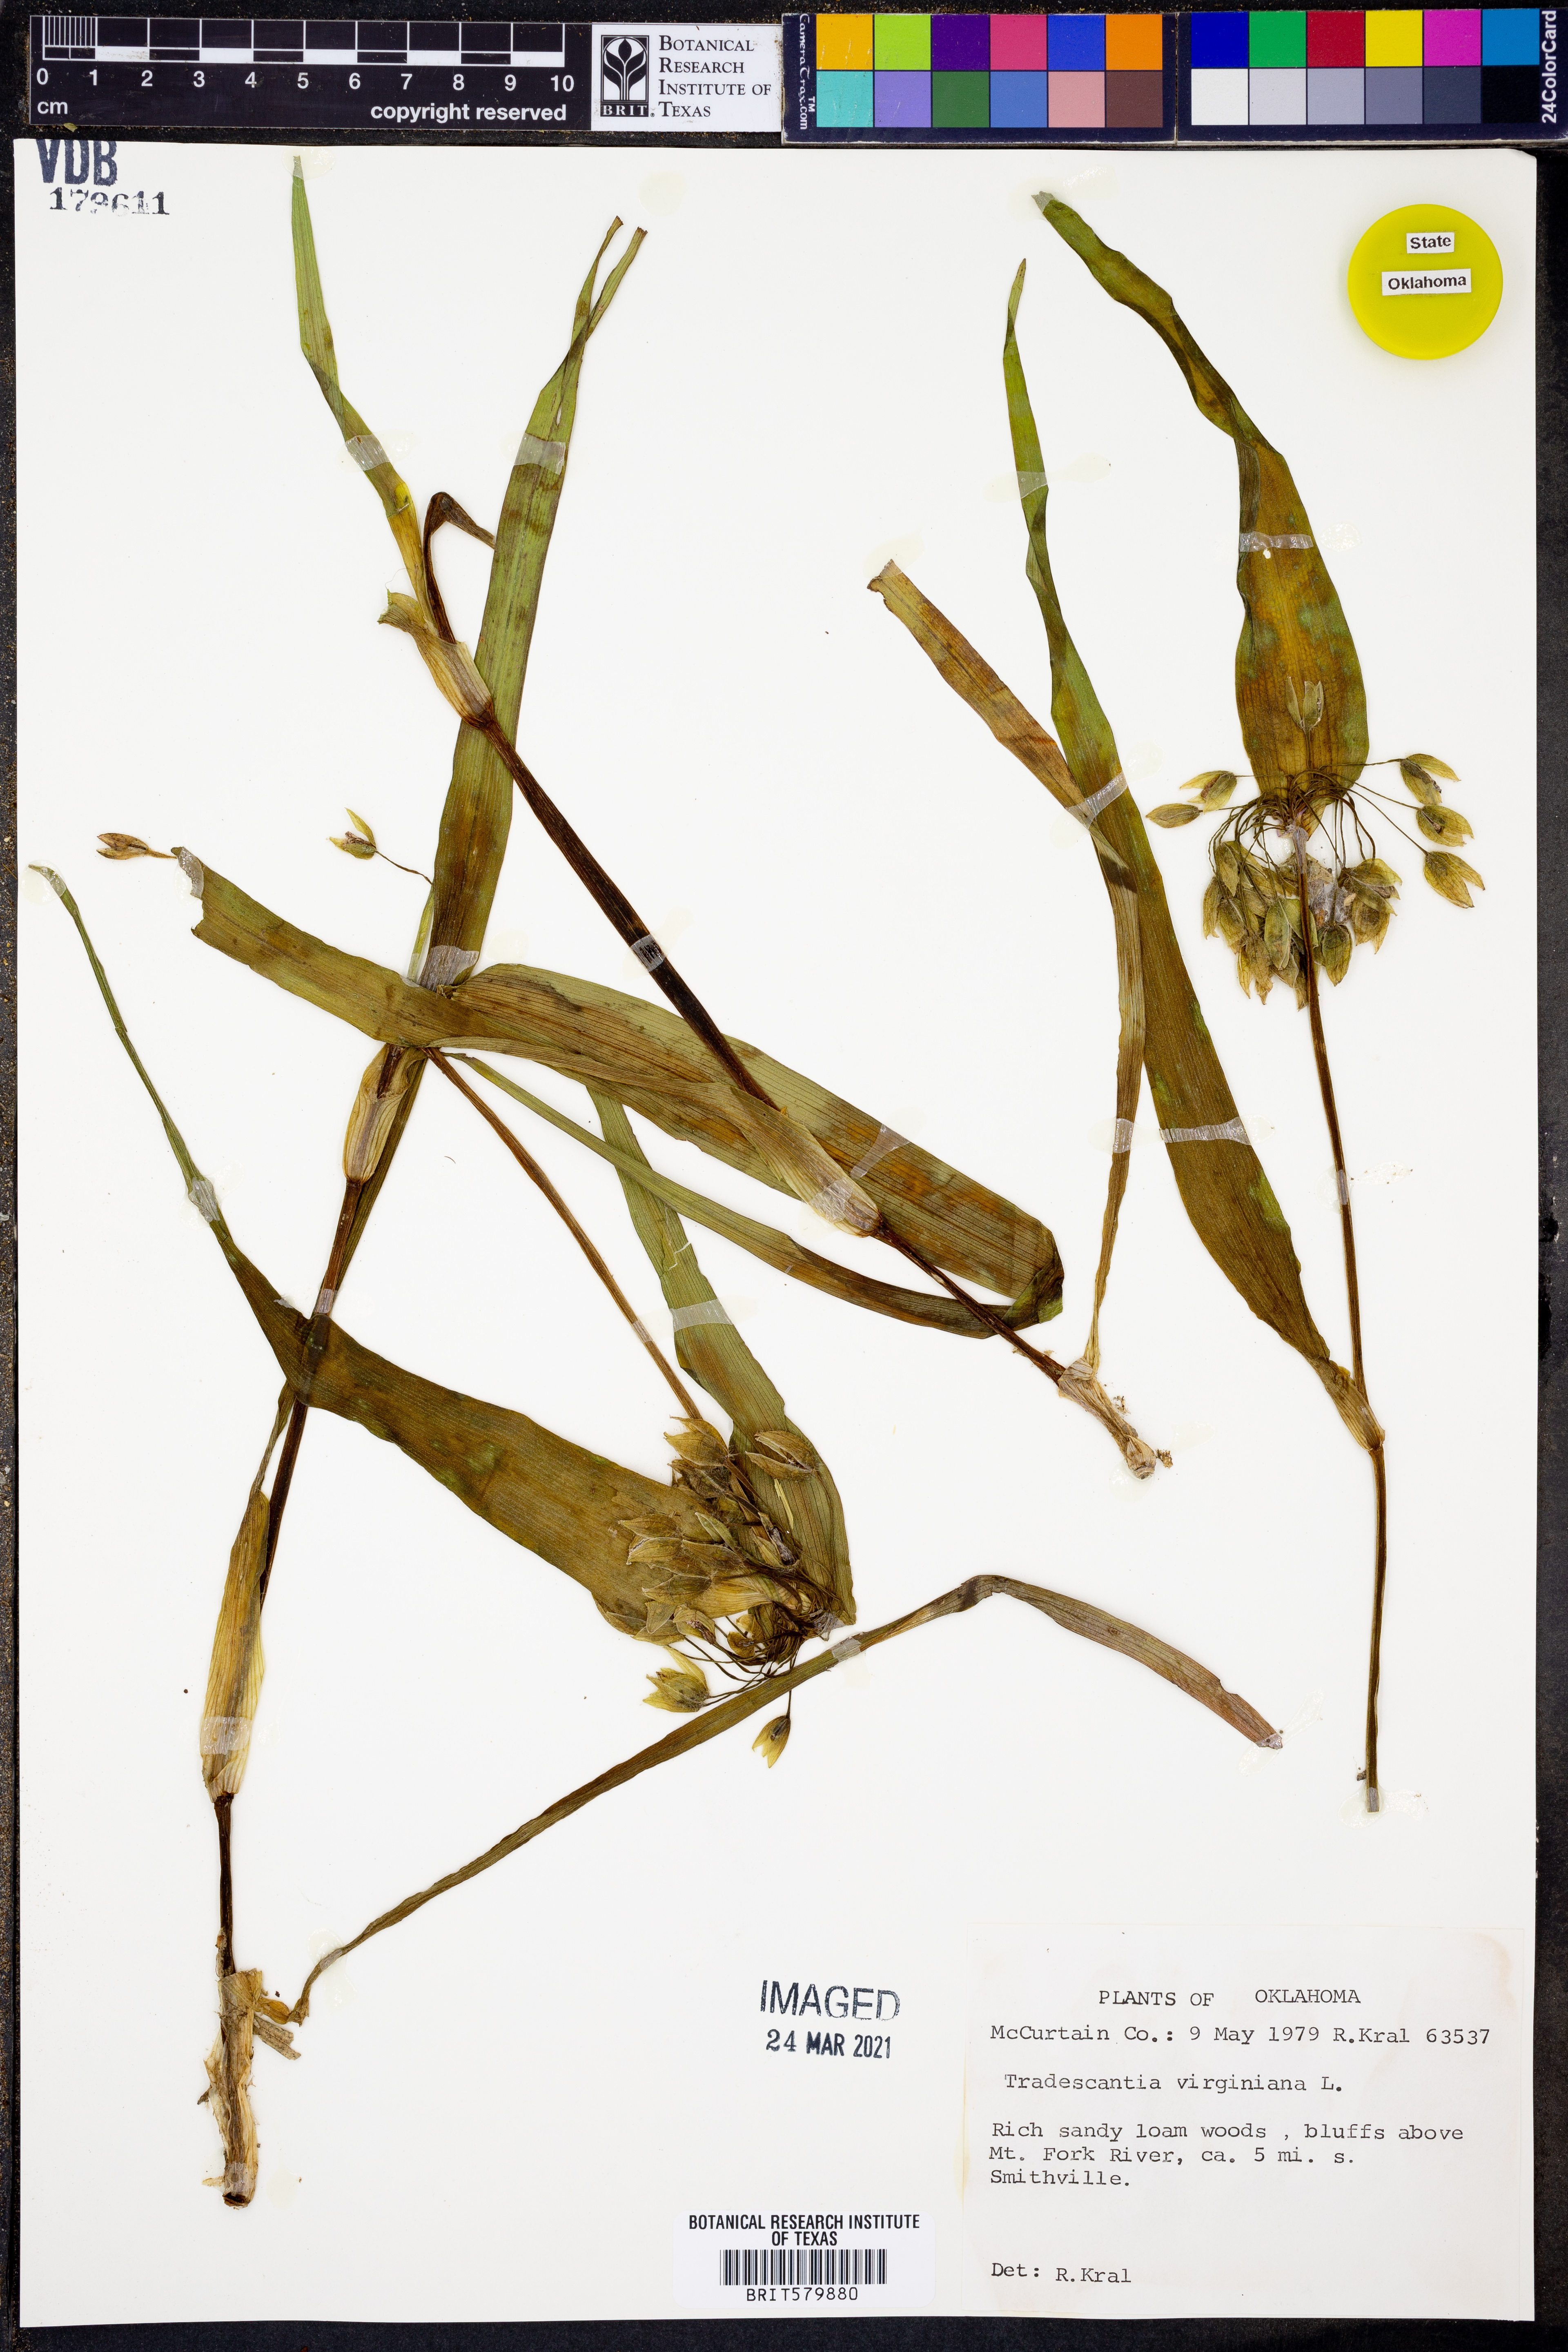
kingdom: Plantae
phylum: Tracheophyta
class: Liliopsida
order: Commelinales
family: Commelinaceae
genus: Tradescantia
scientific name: Tradescantia virginiana
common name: Spiderwort
